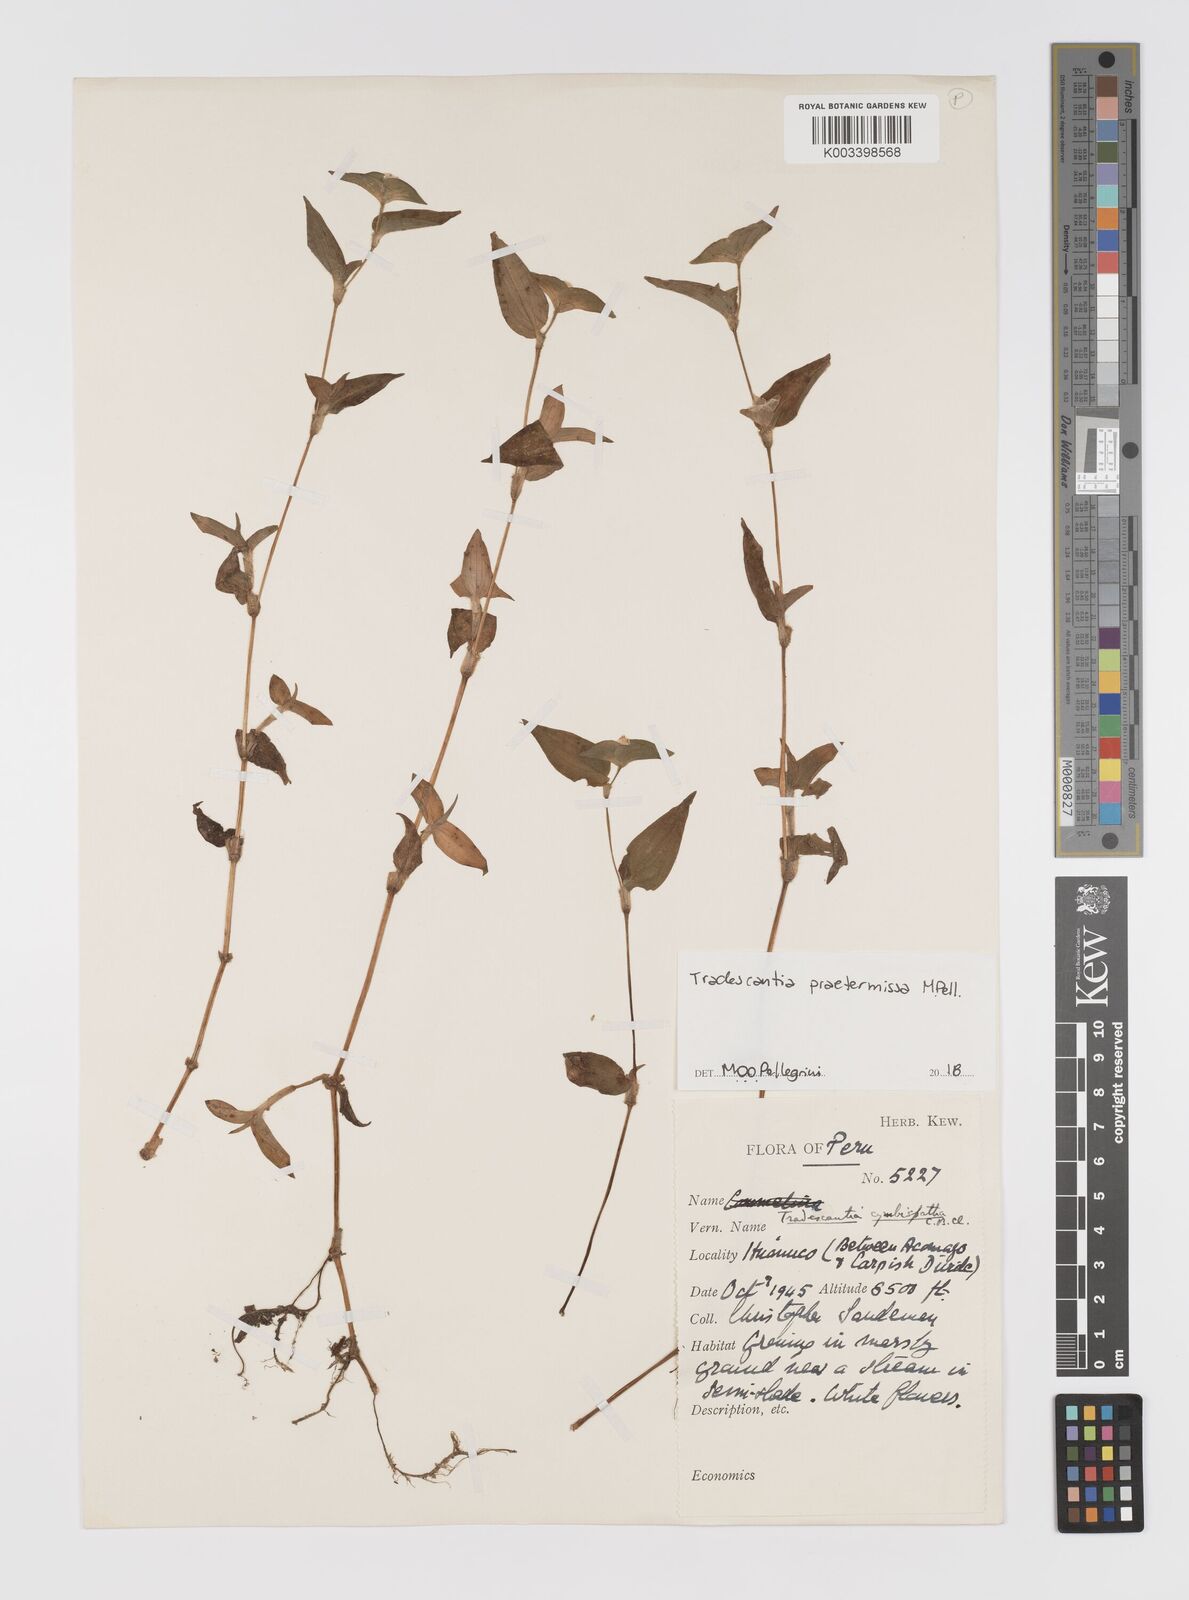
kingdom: Plantae
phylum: Tracheophyta
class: Liliopsida
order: Commelinales
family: Commelinaceae
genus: Tradescantia
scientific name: Tradescantia praetermissa
